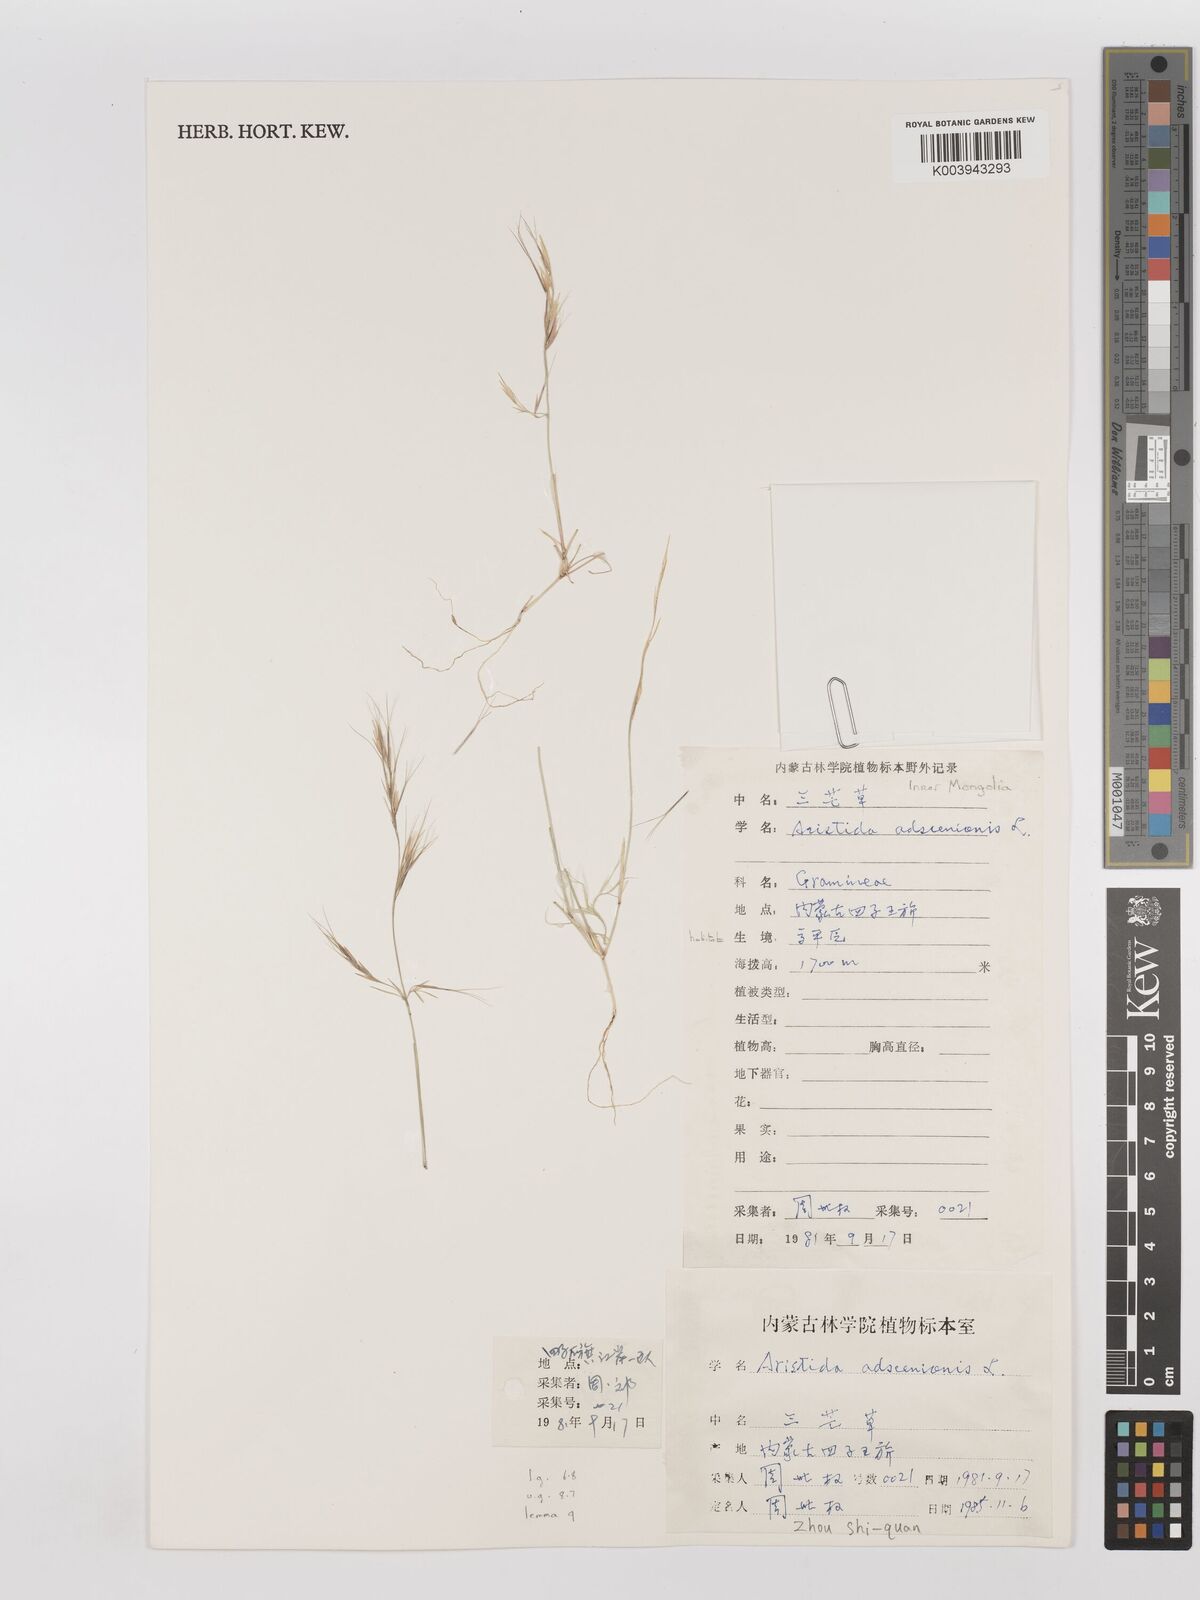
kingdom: Plantae
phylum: Tracheophyta
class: Liliopsida
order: Poales
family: Poaceae
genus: Aristida
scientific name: Aristida adscensionis
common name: Sixweeks threeawn
